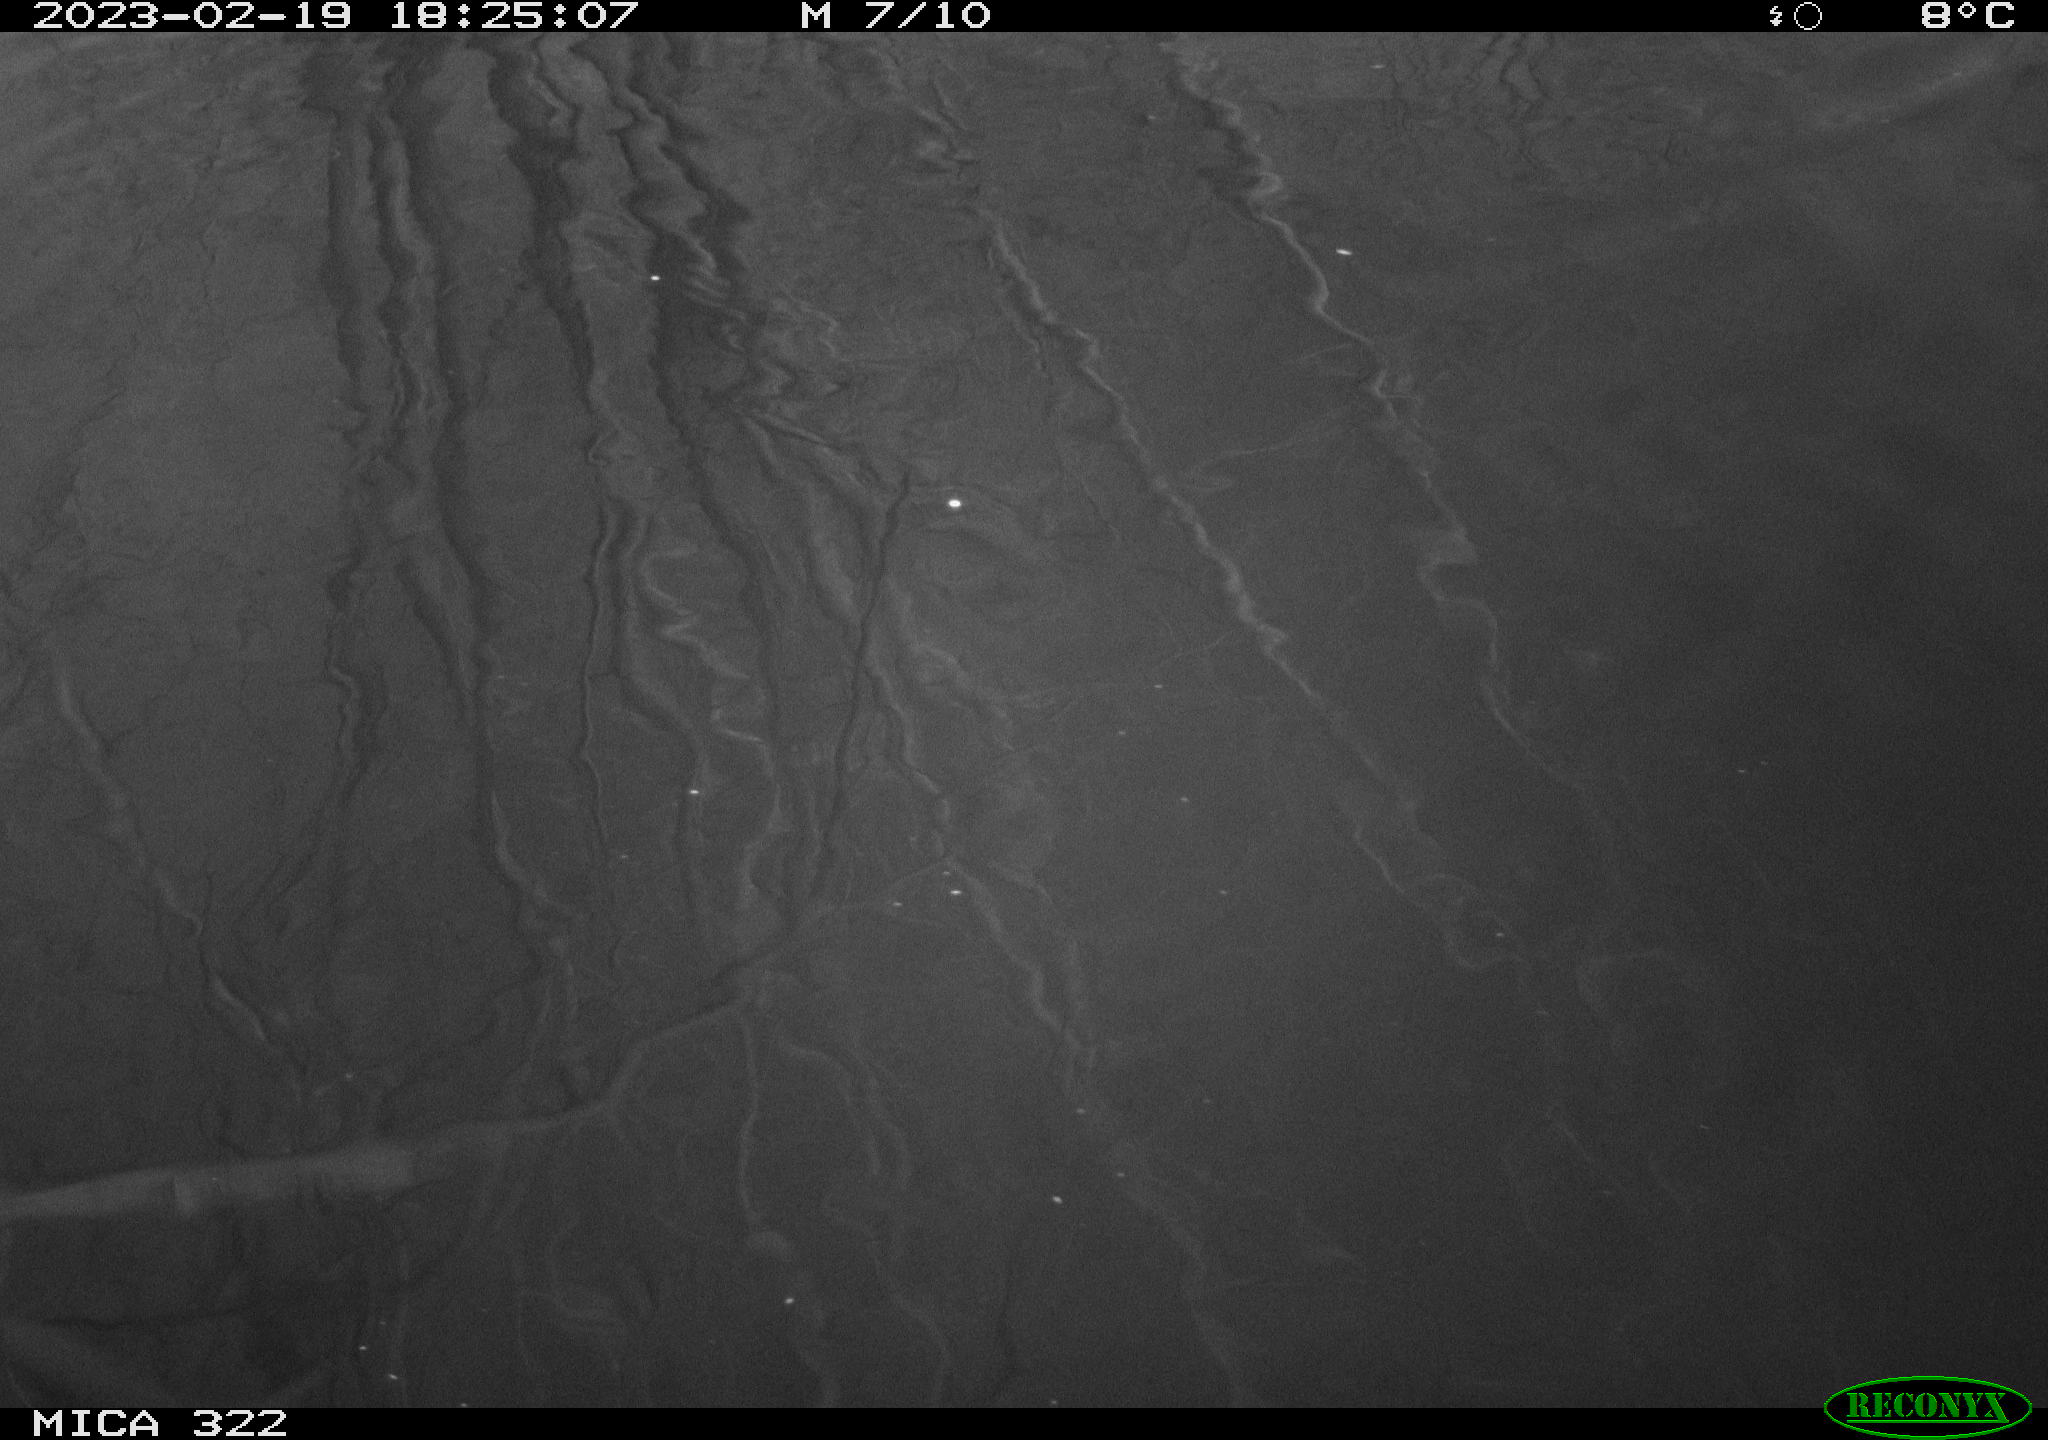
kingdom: Animalia
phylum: Chordata
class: Aves
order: Anseriformes
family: Anatidae
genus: Anas
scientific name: Anas
